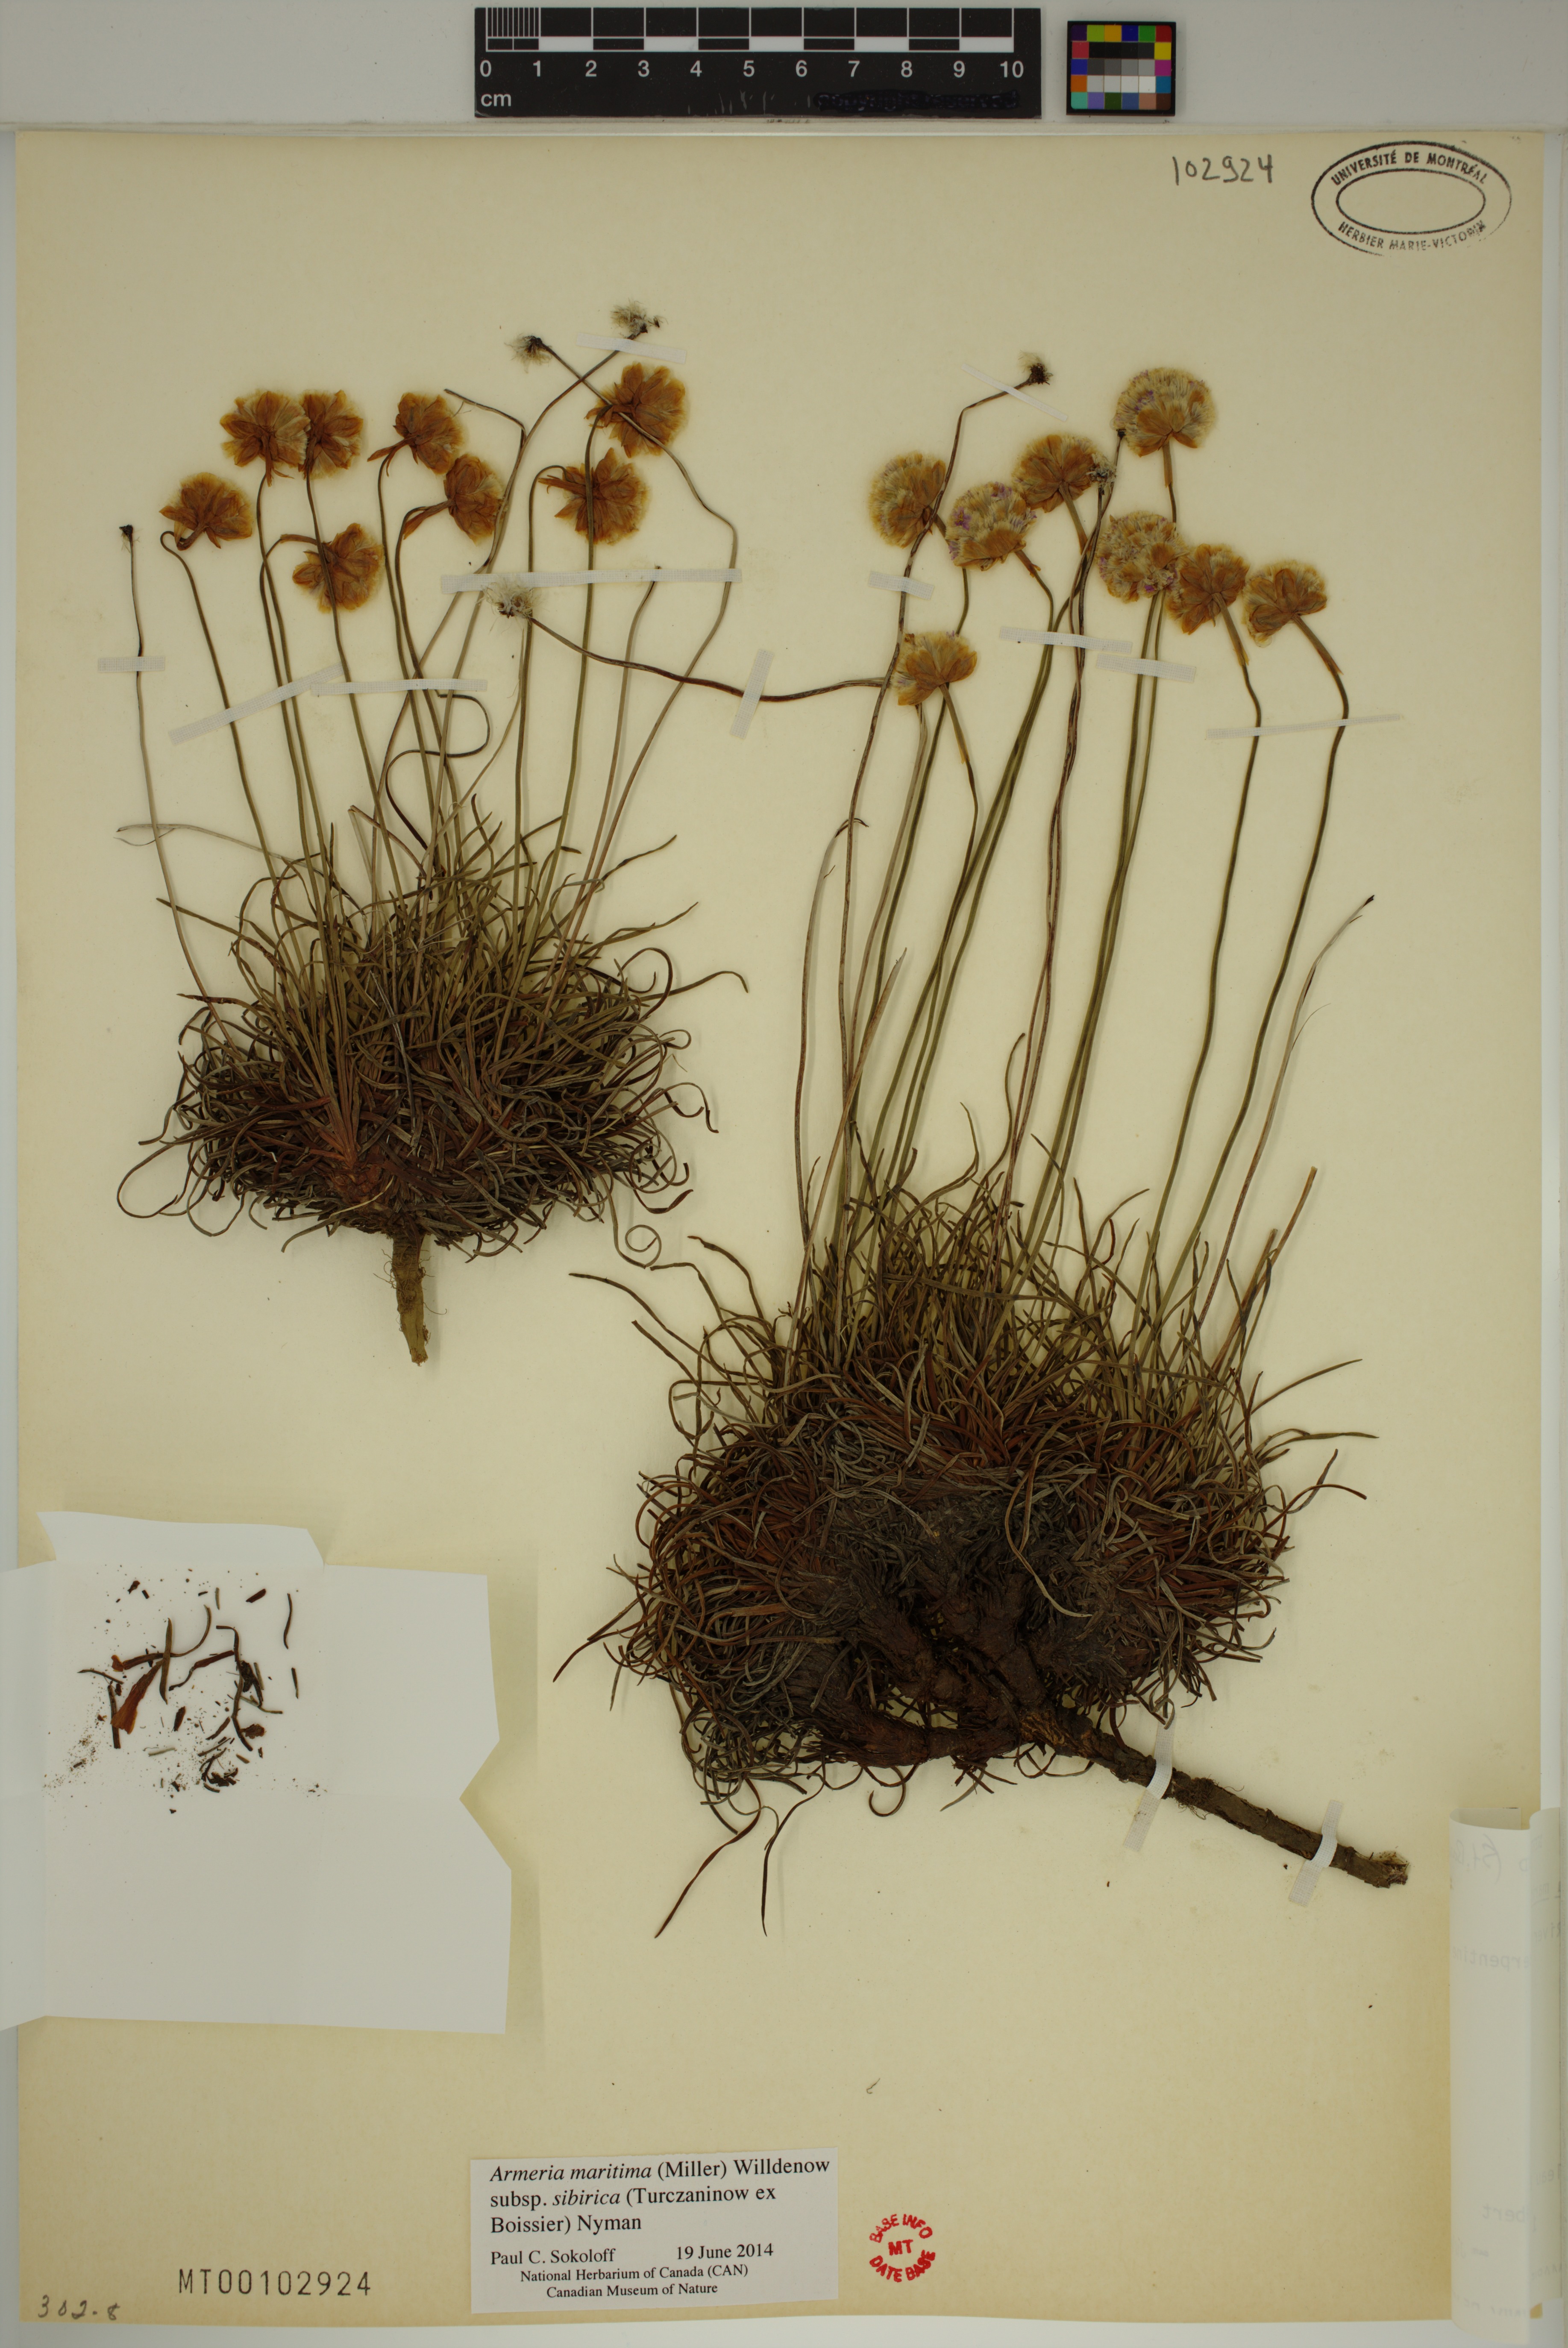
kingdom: Plantae
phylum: Tracheophyta
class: Magnoliopsida
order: Caryophyllales
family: Plumbaginaceae
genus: Armeria
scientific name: Armeria maritima
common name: Thrift
